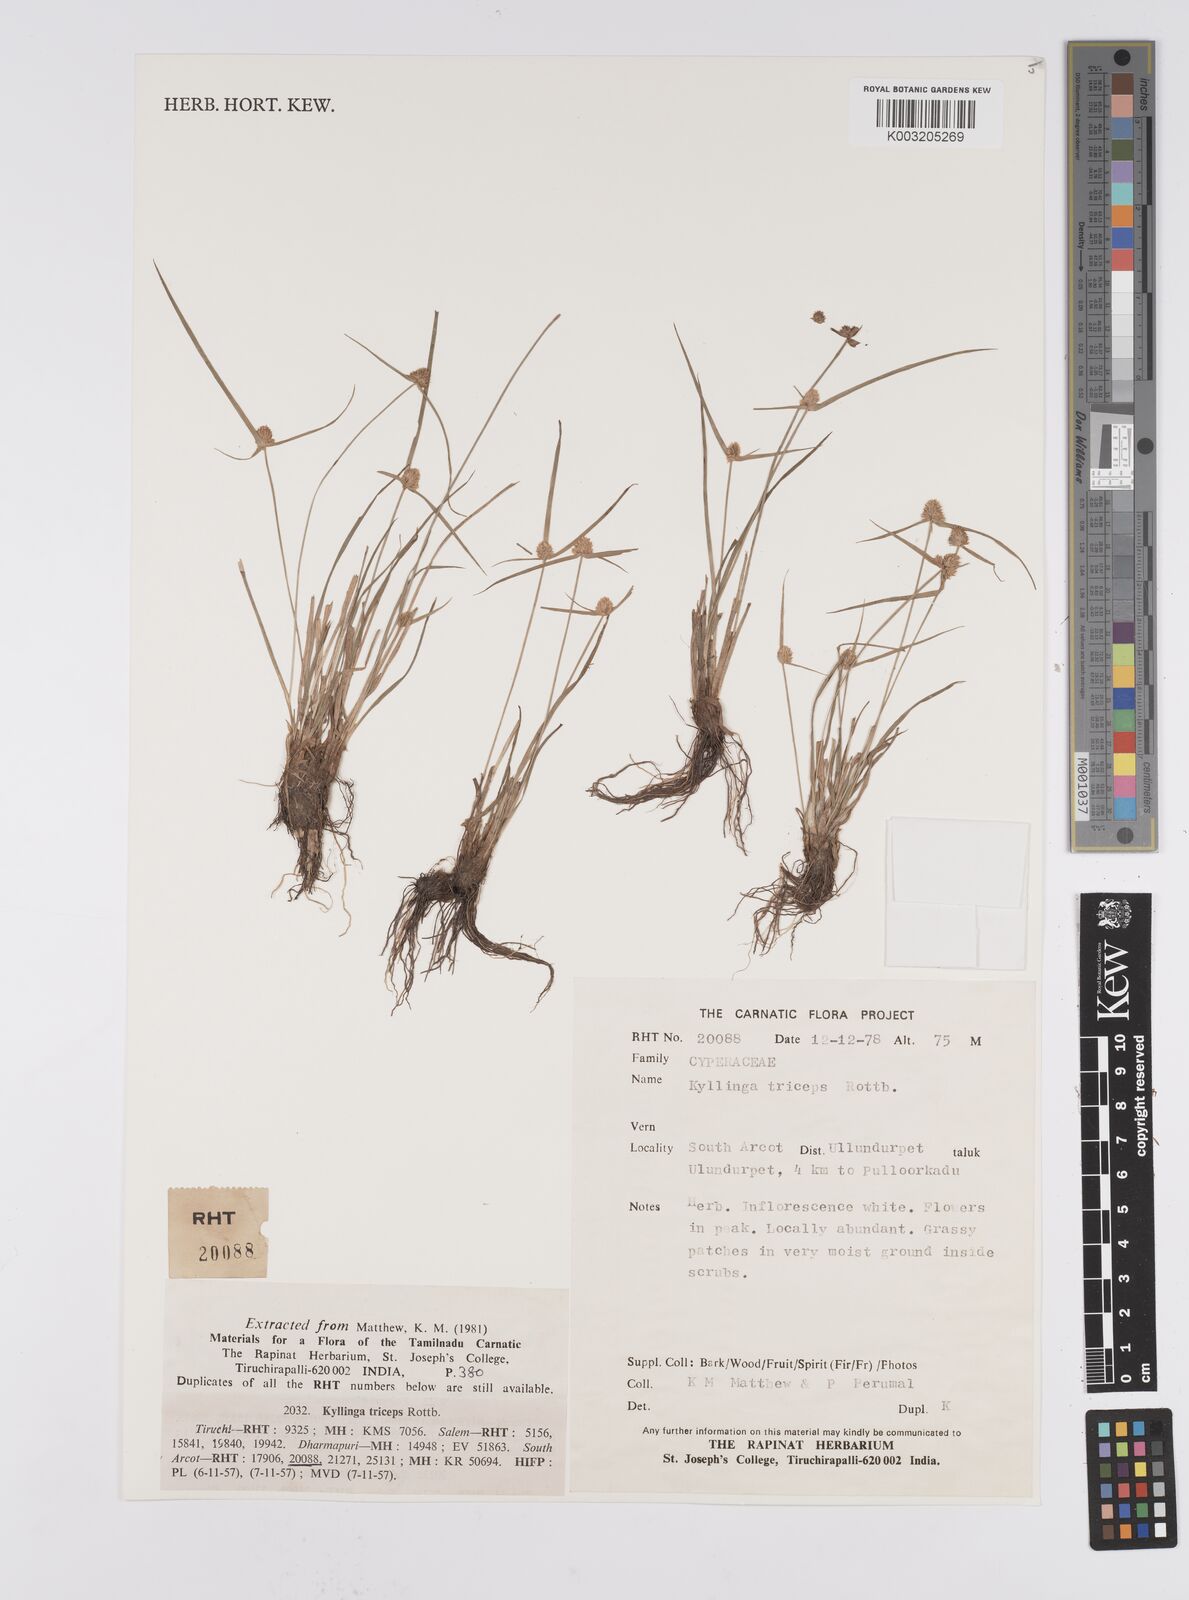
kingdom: Plantae
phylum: Tracheophyta
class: Liliopsida
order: Poales
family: Cyperaceae
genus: Cyperus
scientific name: Cyperus
